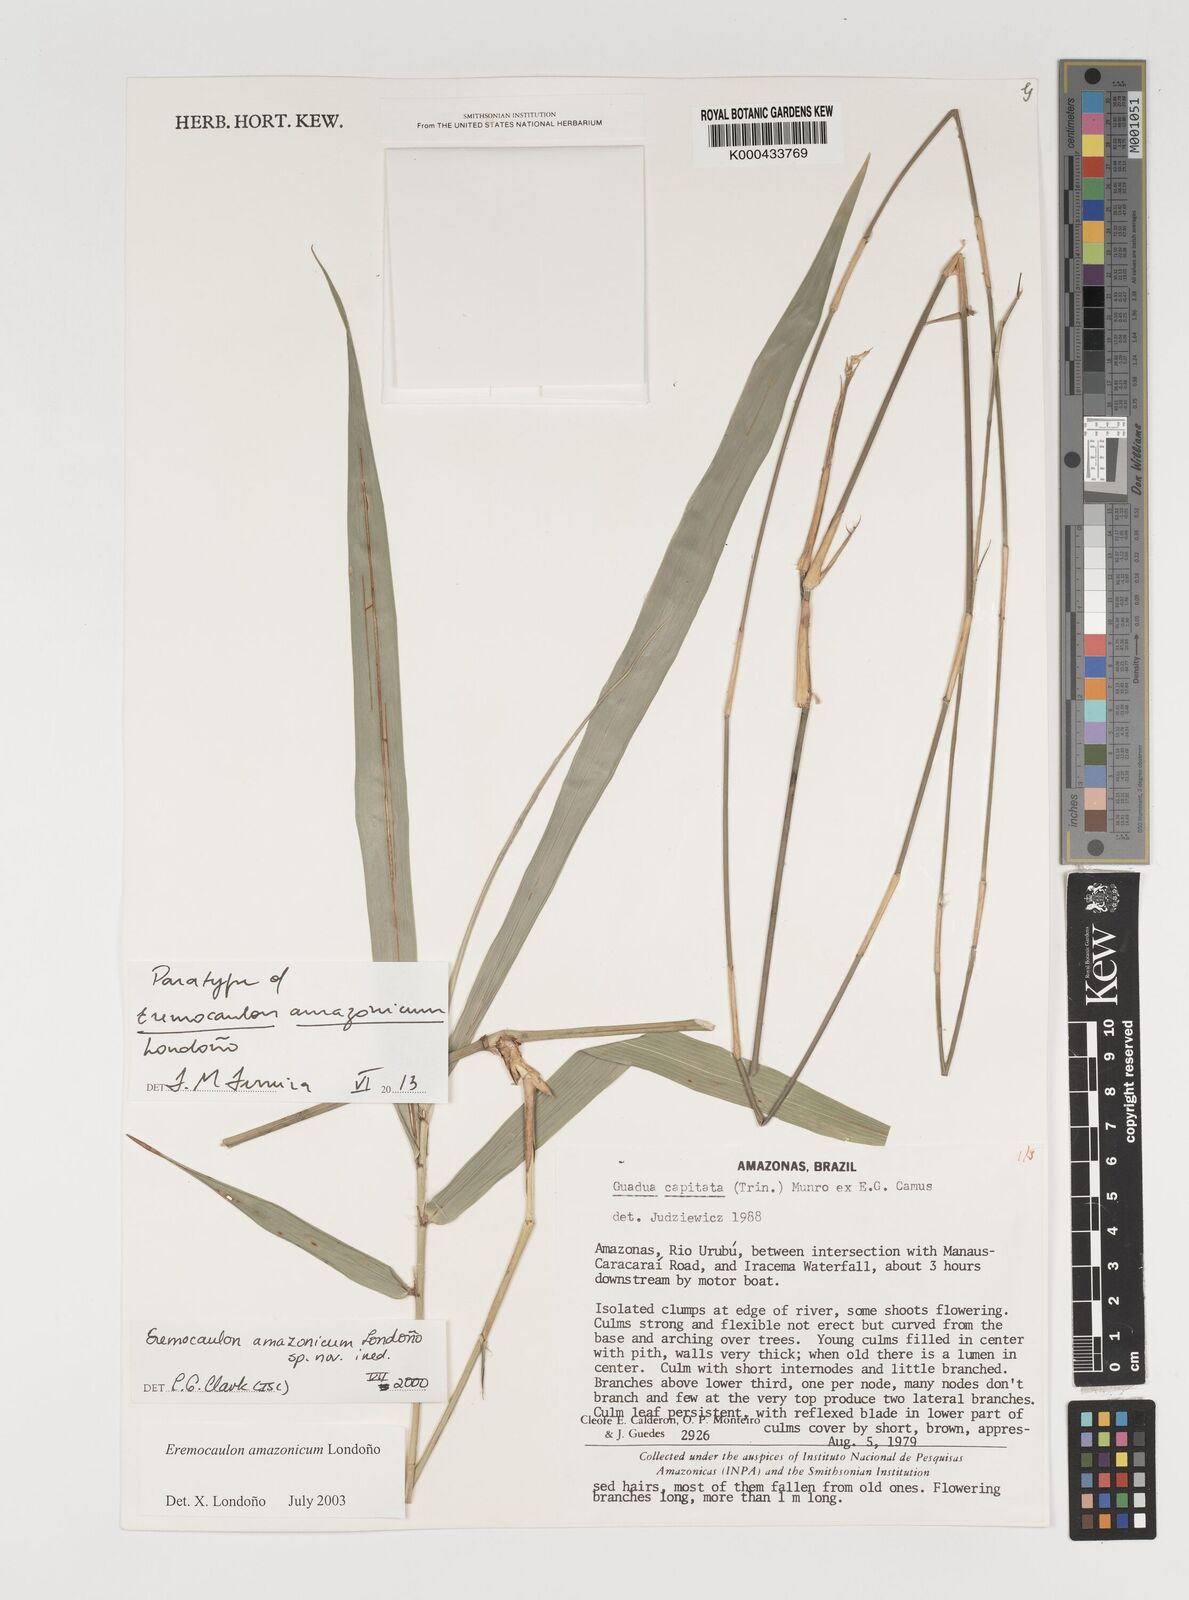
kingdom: Plantae
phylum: Tracheophyta
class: Liliopsida
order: Poales
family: Poaceae
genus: Eremocaulon
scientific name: Eremocaulon
